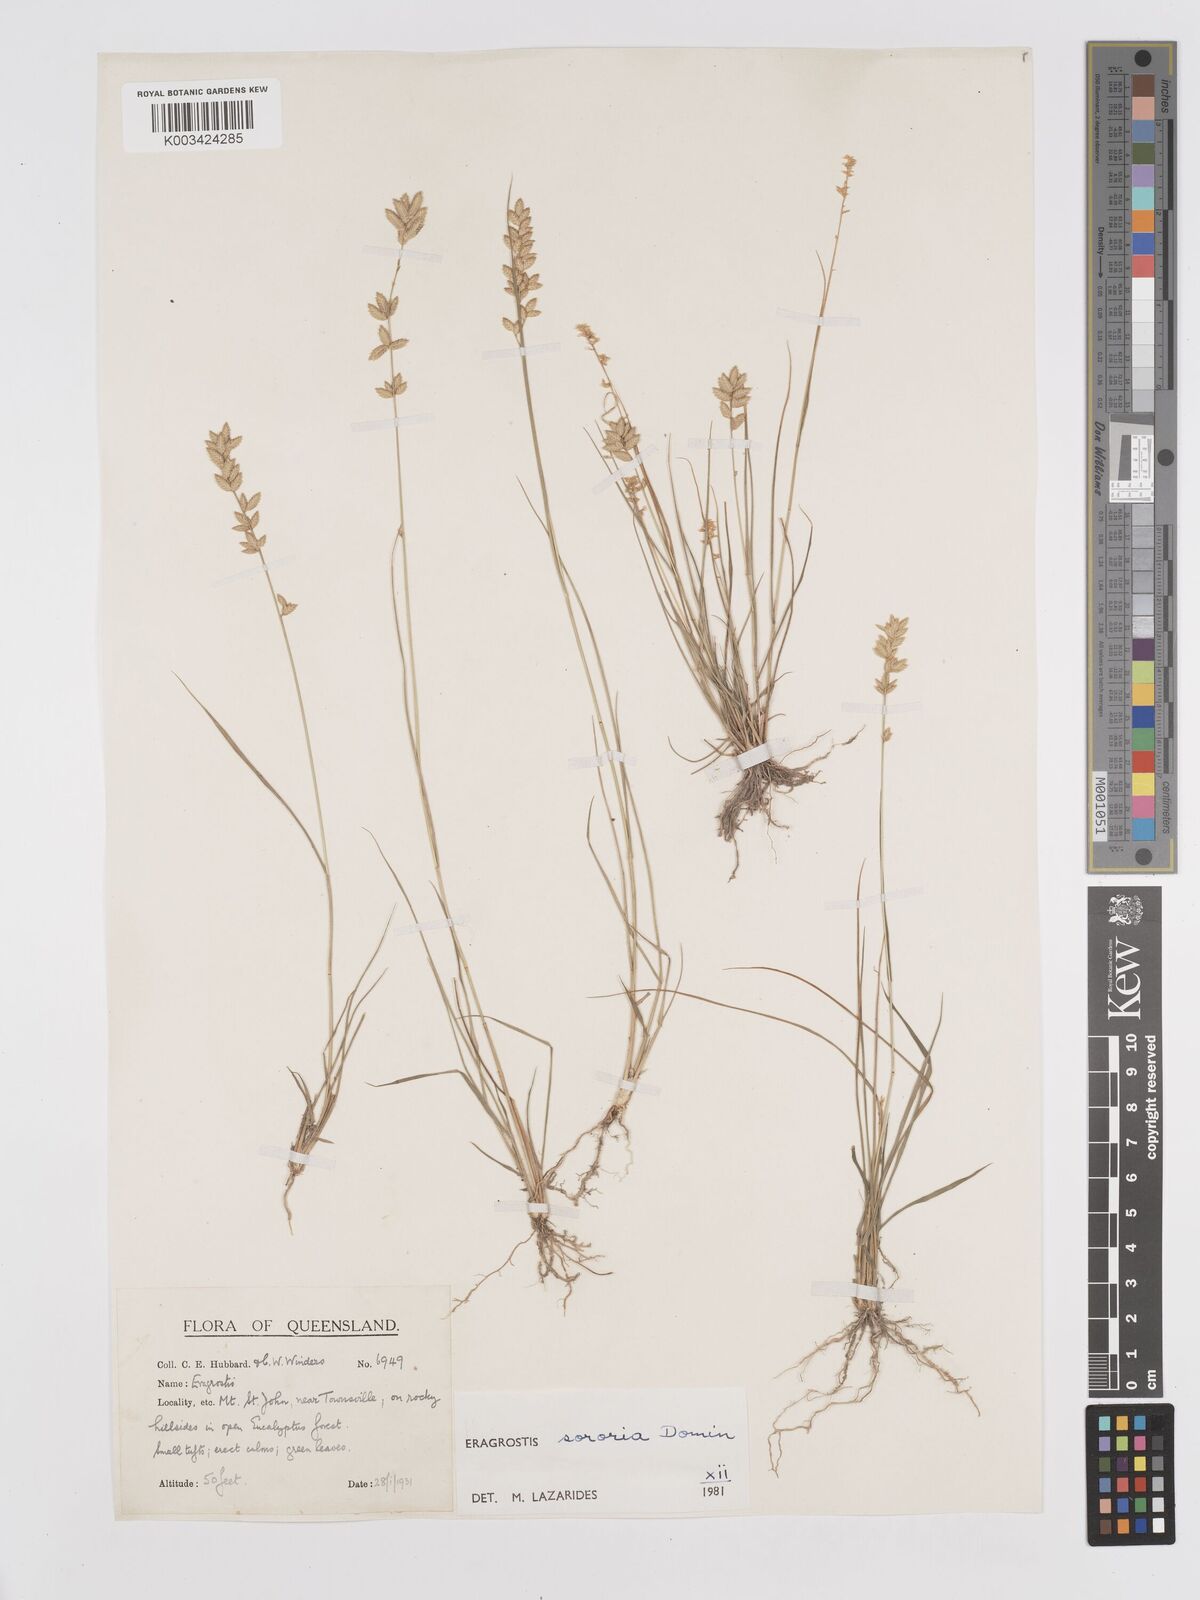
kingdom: Plantae
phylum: Tracheophyta
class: Liliopsida
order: Poales
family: Poaceae
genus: Eragrostis
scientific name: Eragrostis sororia
